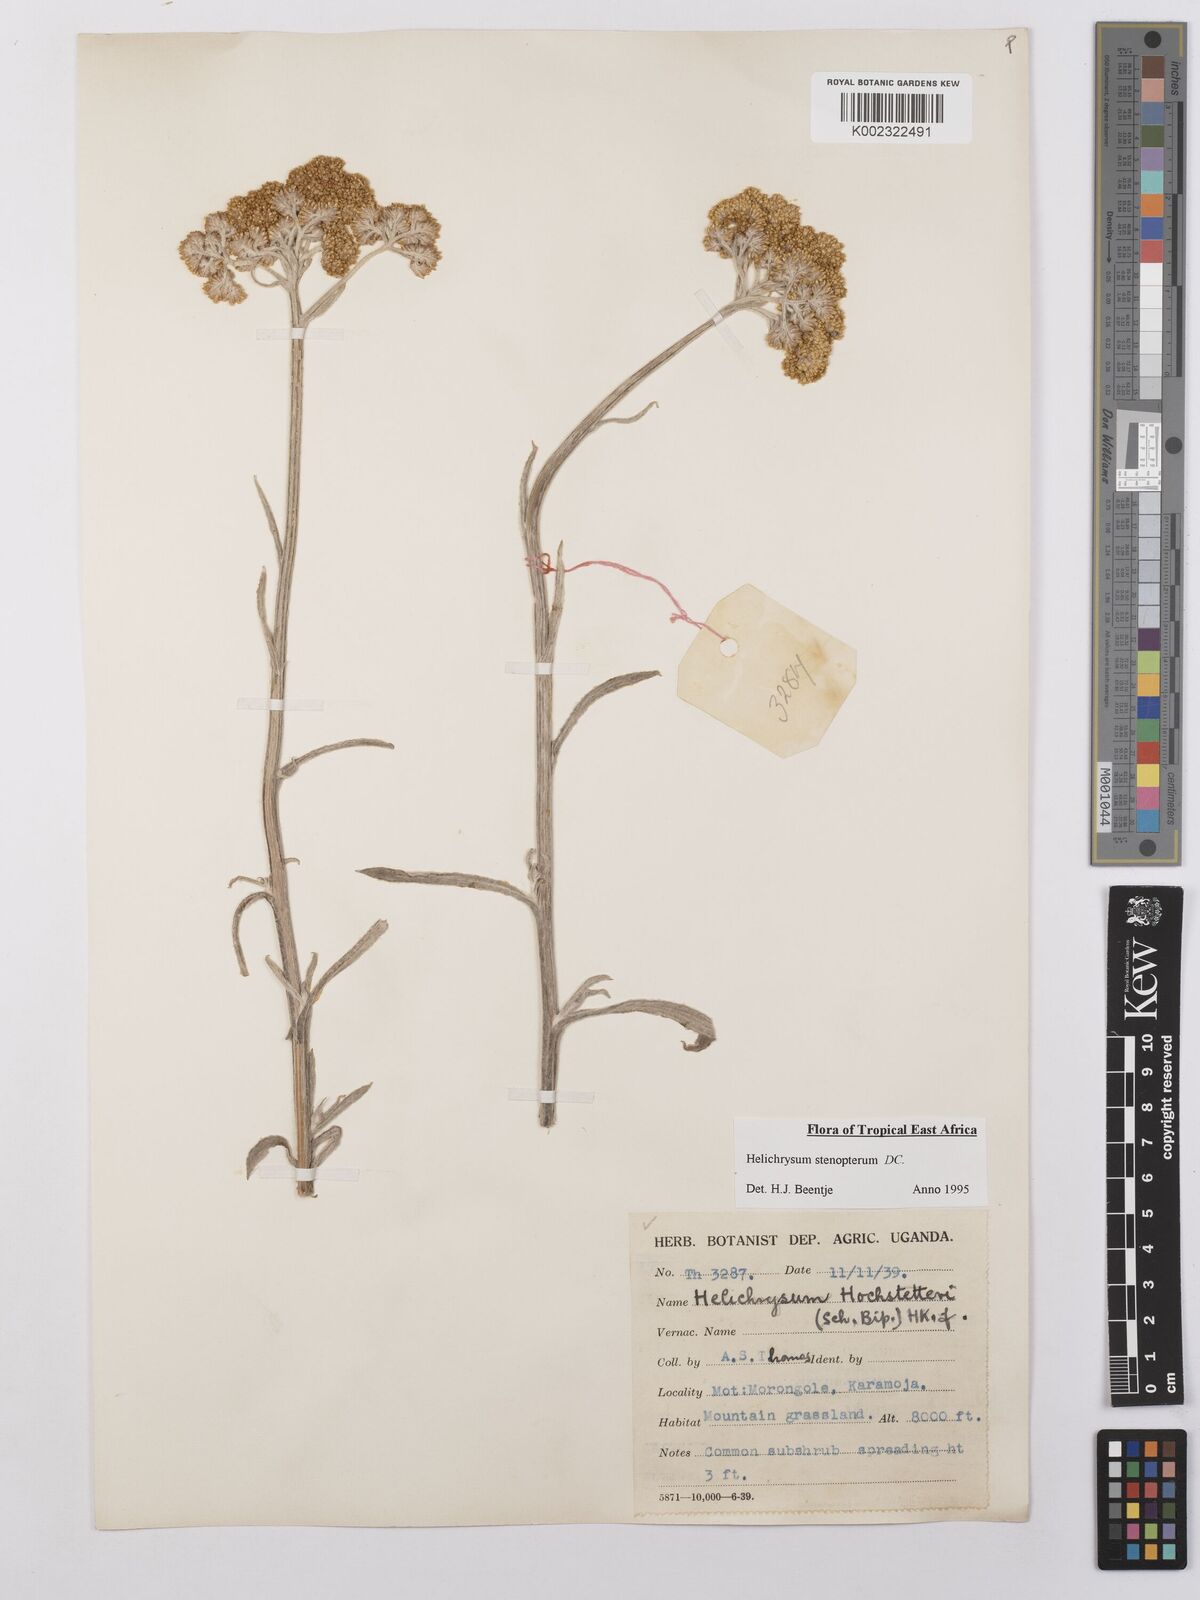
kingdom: Plantae
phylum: Tracheophyta
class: Magnoliopsida
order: Asterales
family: Asteraceae
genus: Helichrysum
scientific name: Helichrysum stenopterum
